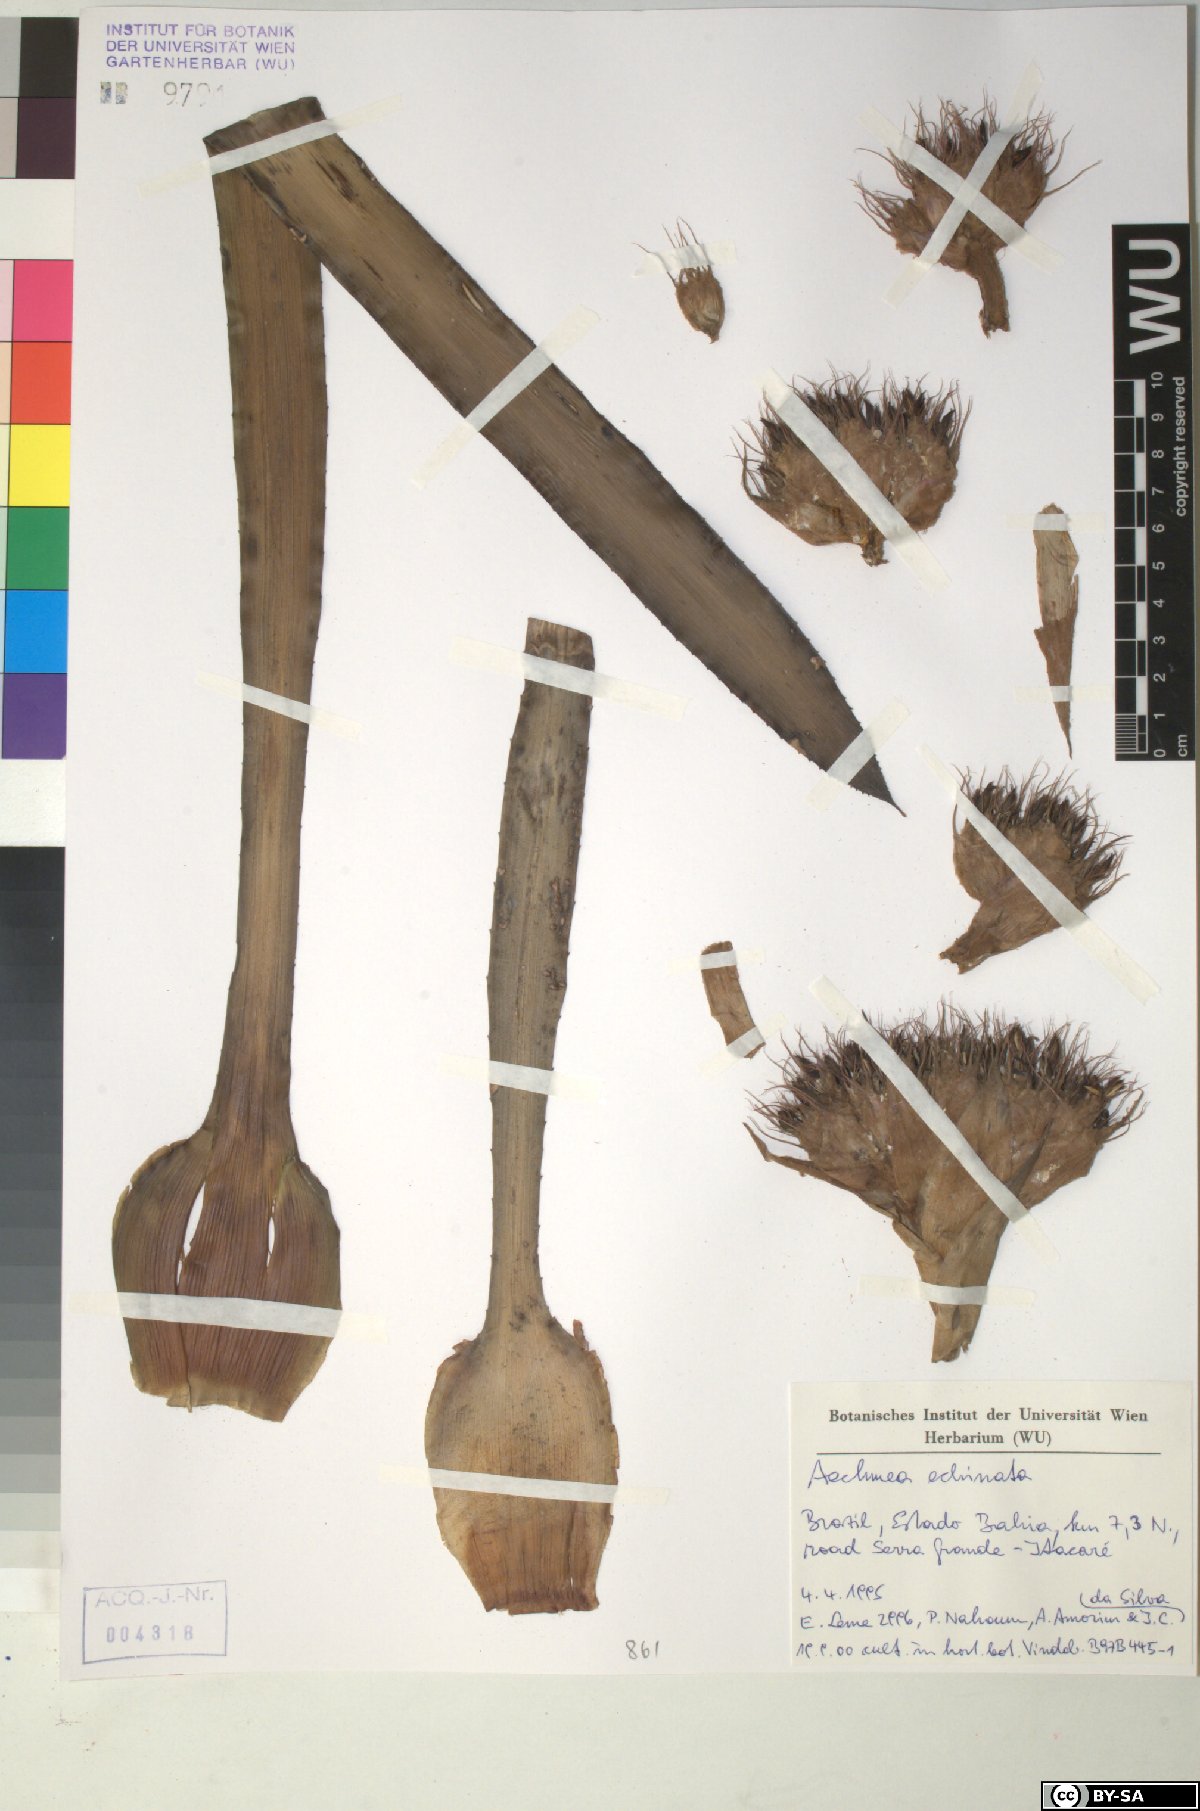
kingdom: Plantae
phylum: Tracheophyta
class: Liliopsida
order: Poales
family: Bromeliaceae
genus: Aechmea
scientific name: Aechmea echinata
